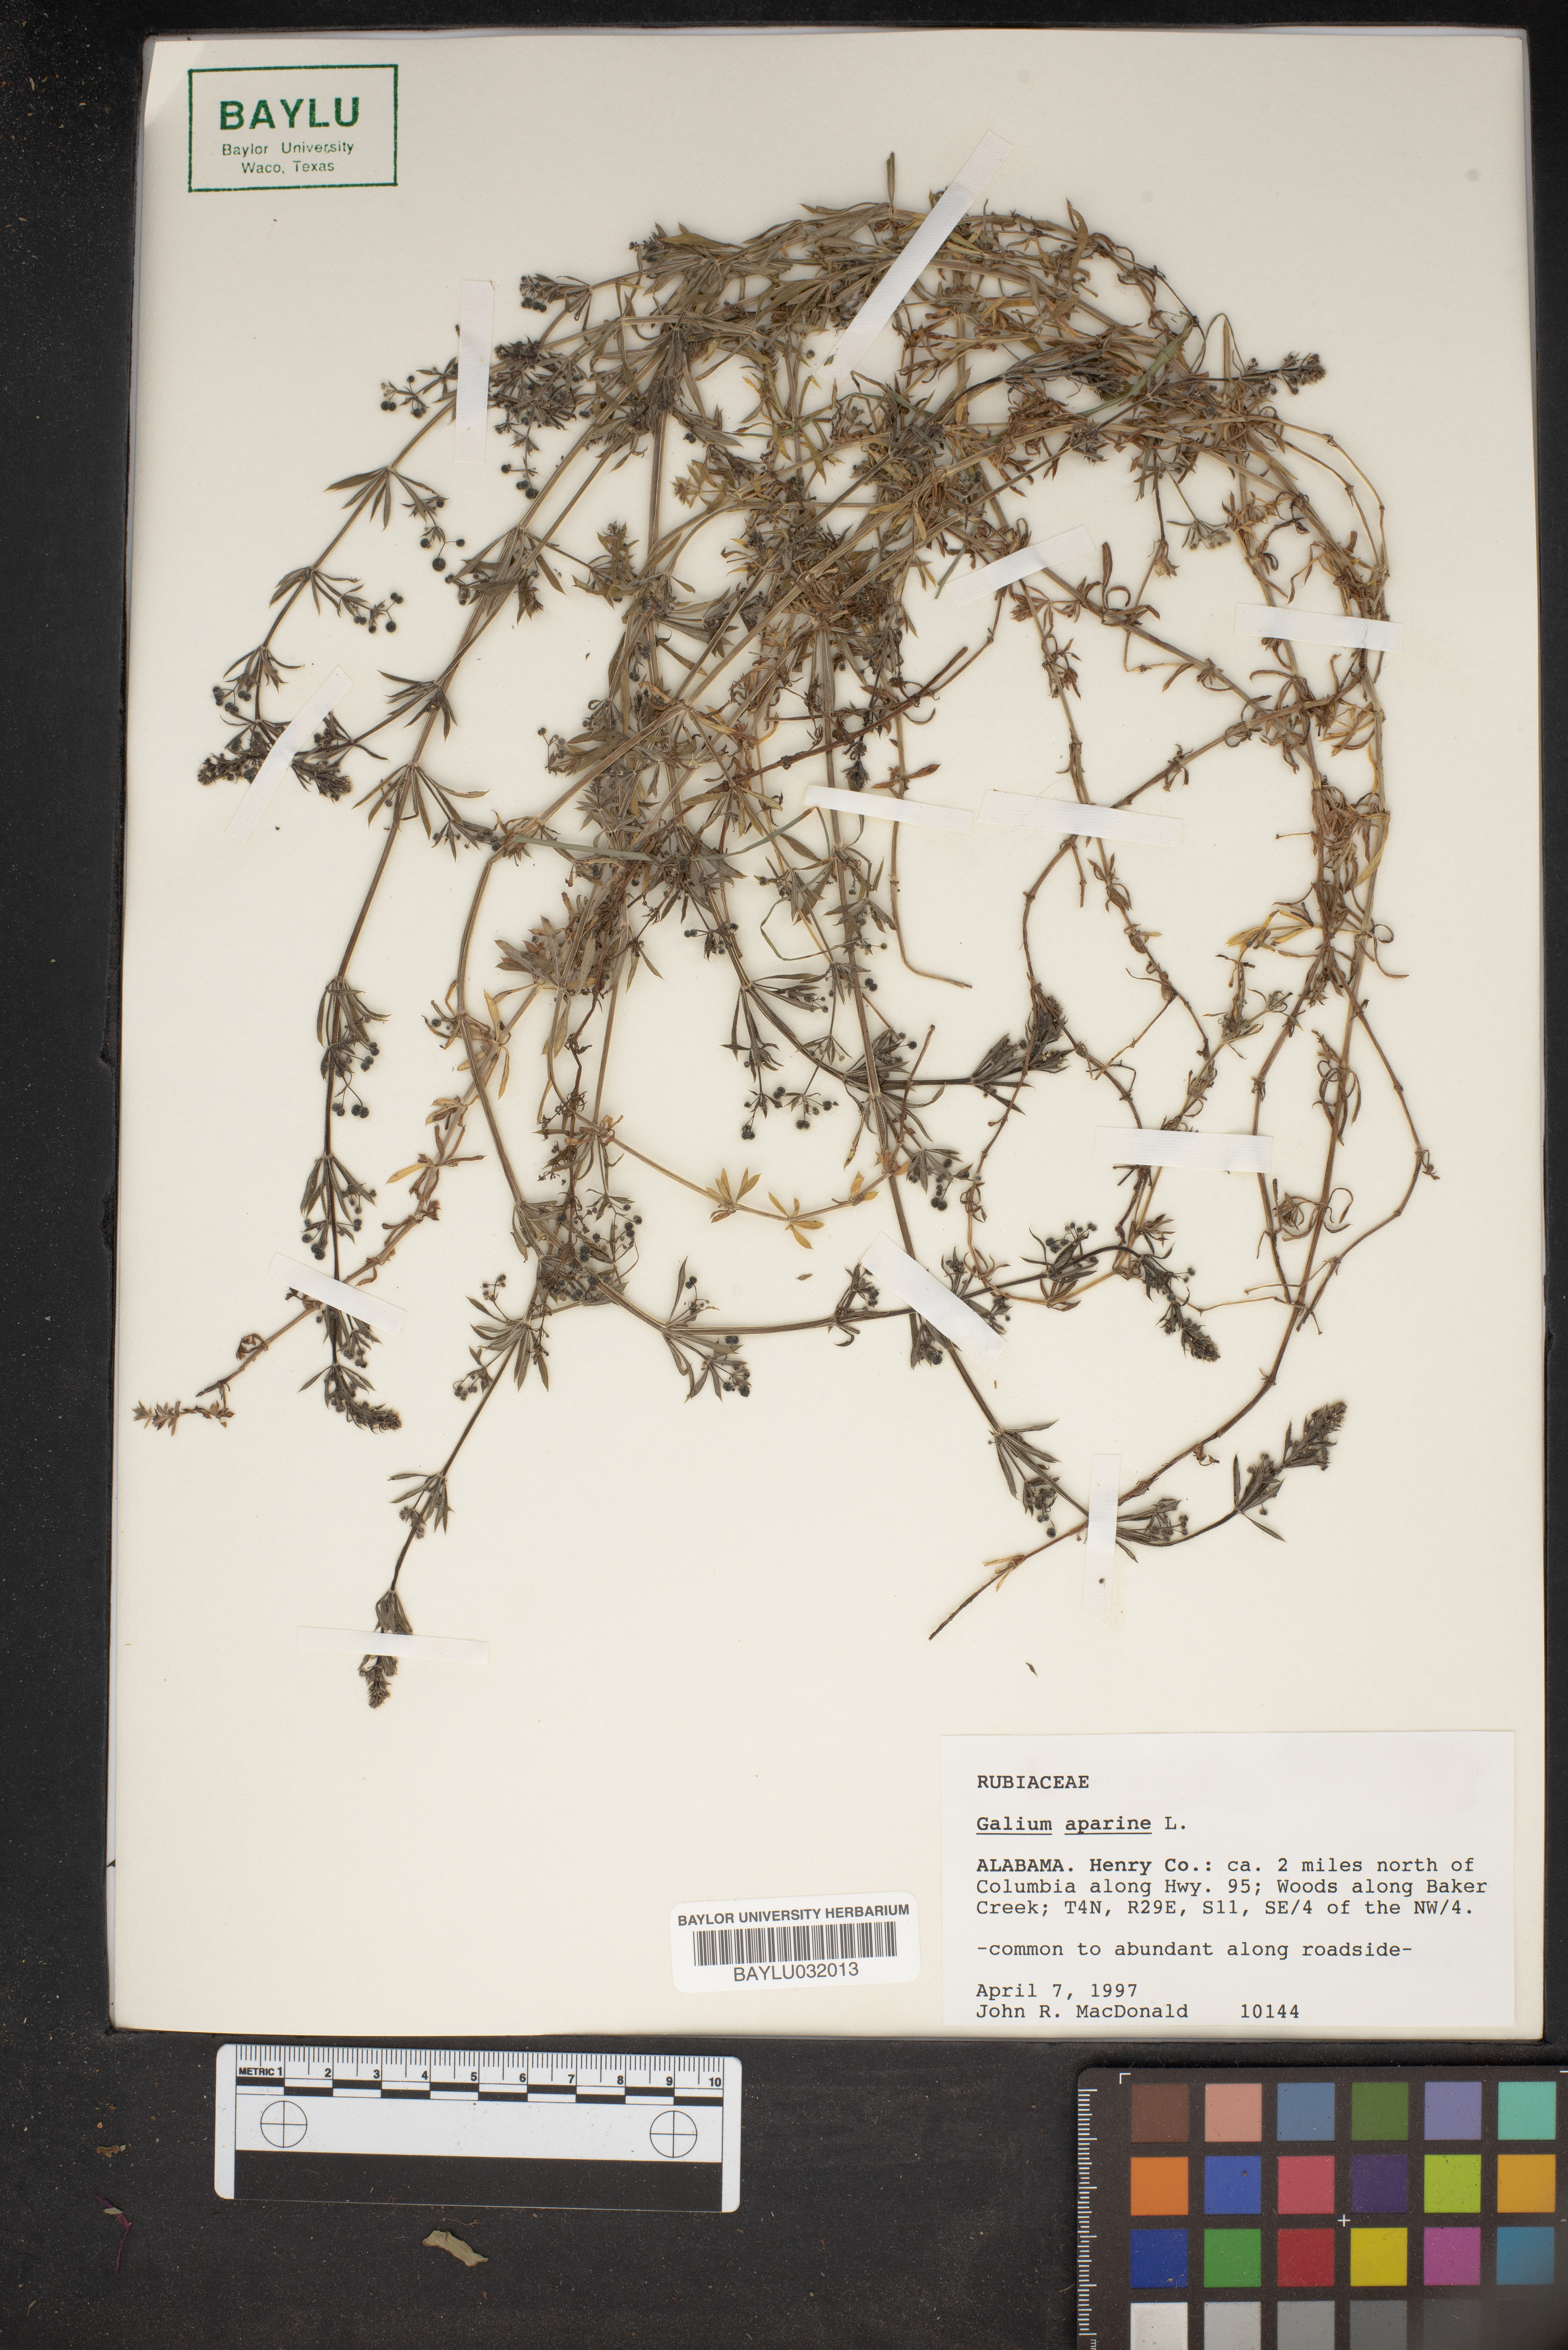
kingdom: Plantae
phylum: Tracheophyta
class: Magnoliopsida
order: Gentianales
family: Rubiaceae
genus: Galium
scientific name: Galium aparine
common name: Cleavers
